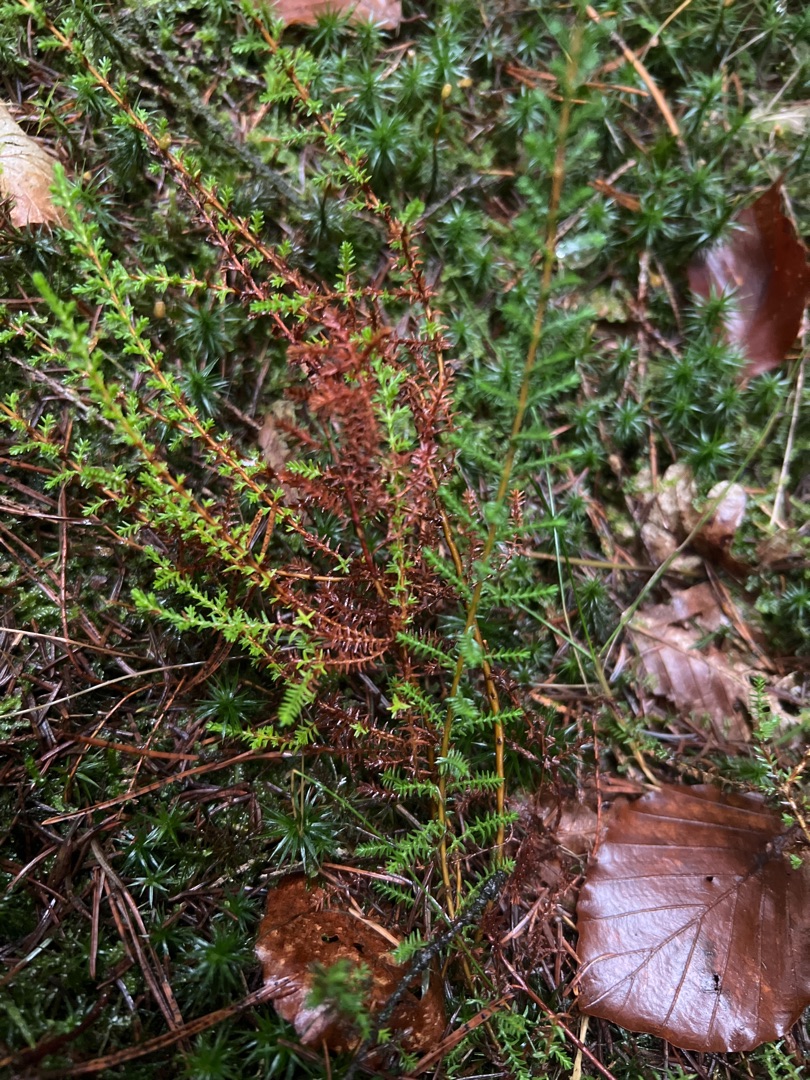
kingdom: Plantae
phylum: Tracheophyta
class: Magnoliopsida
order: Ericales
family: Ericaceae
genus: Calluna
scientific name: Calluna vulgaris
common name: Hedelyng
